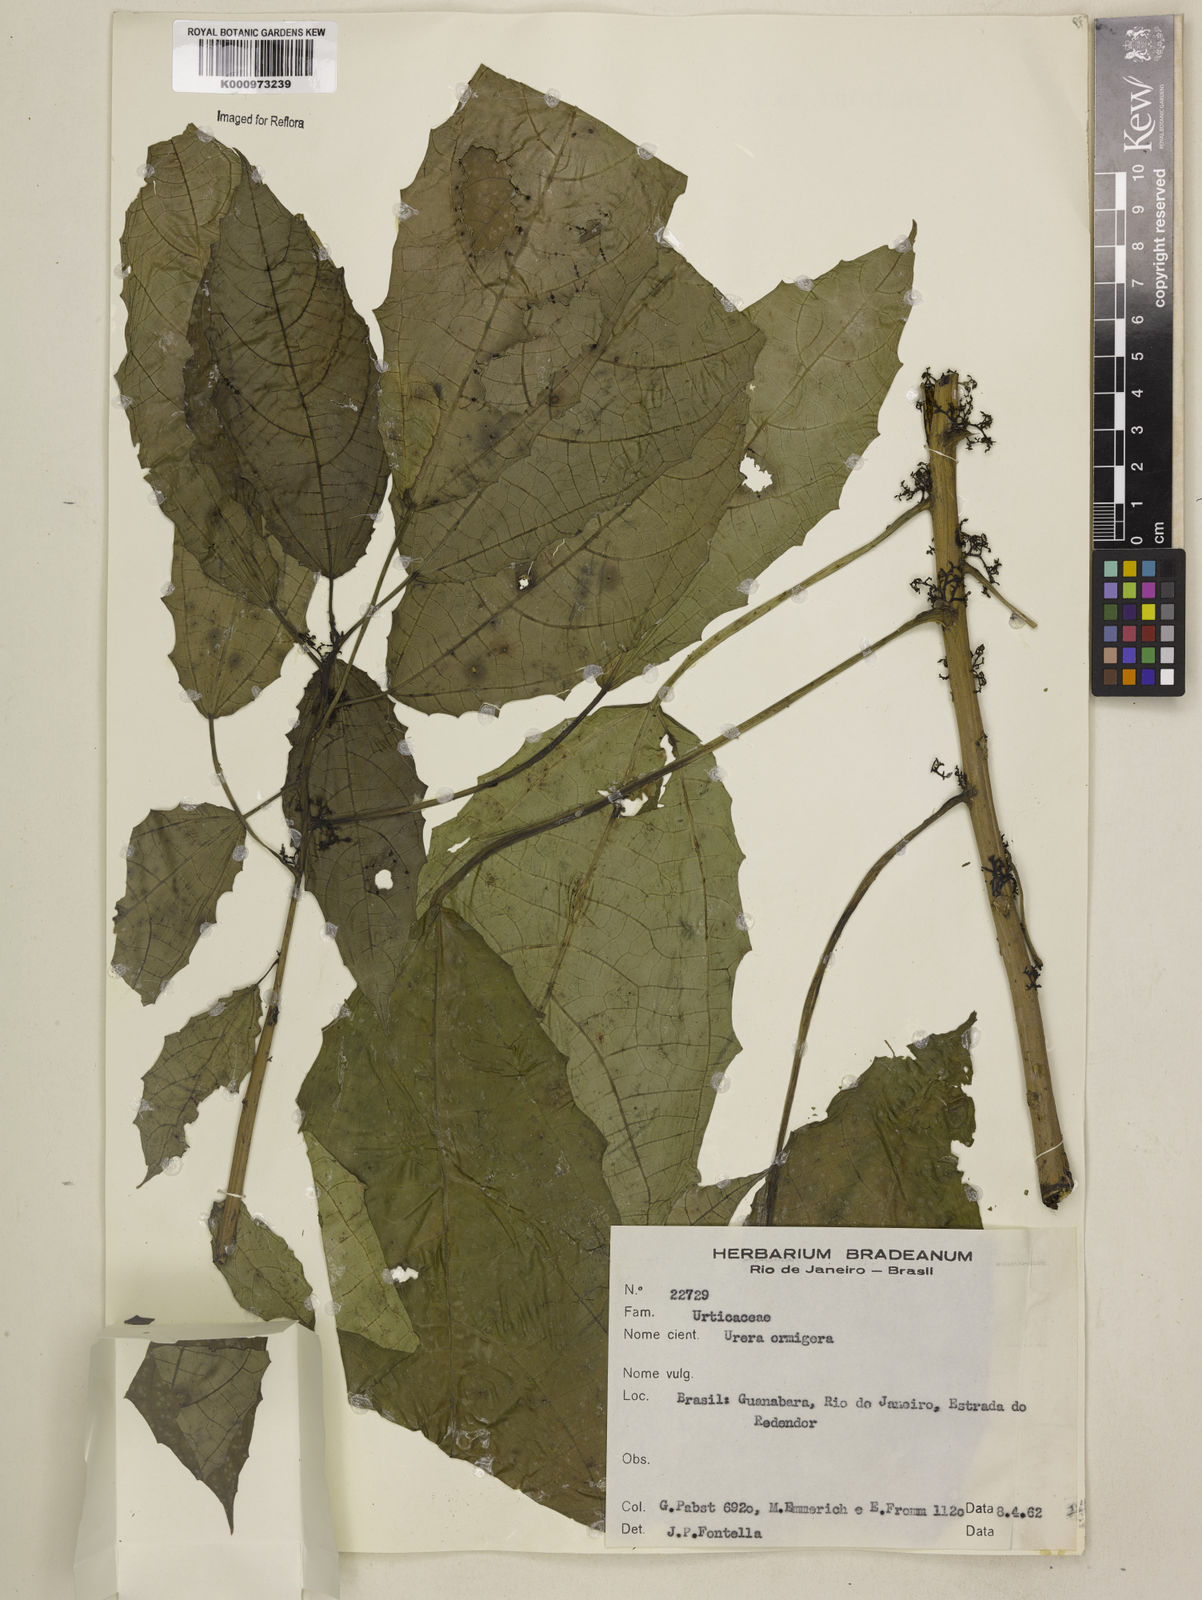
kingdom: Plantae
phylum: Tracheophyta
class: Magnoliopsida
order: Rosales
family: Urticaceae
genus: Urera
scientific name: Urera baccifera
